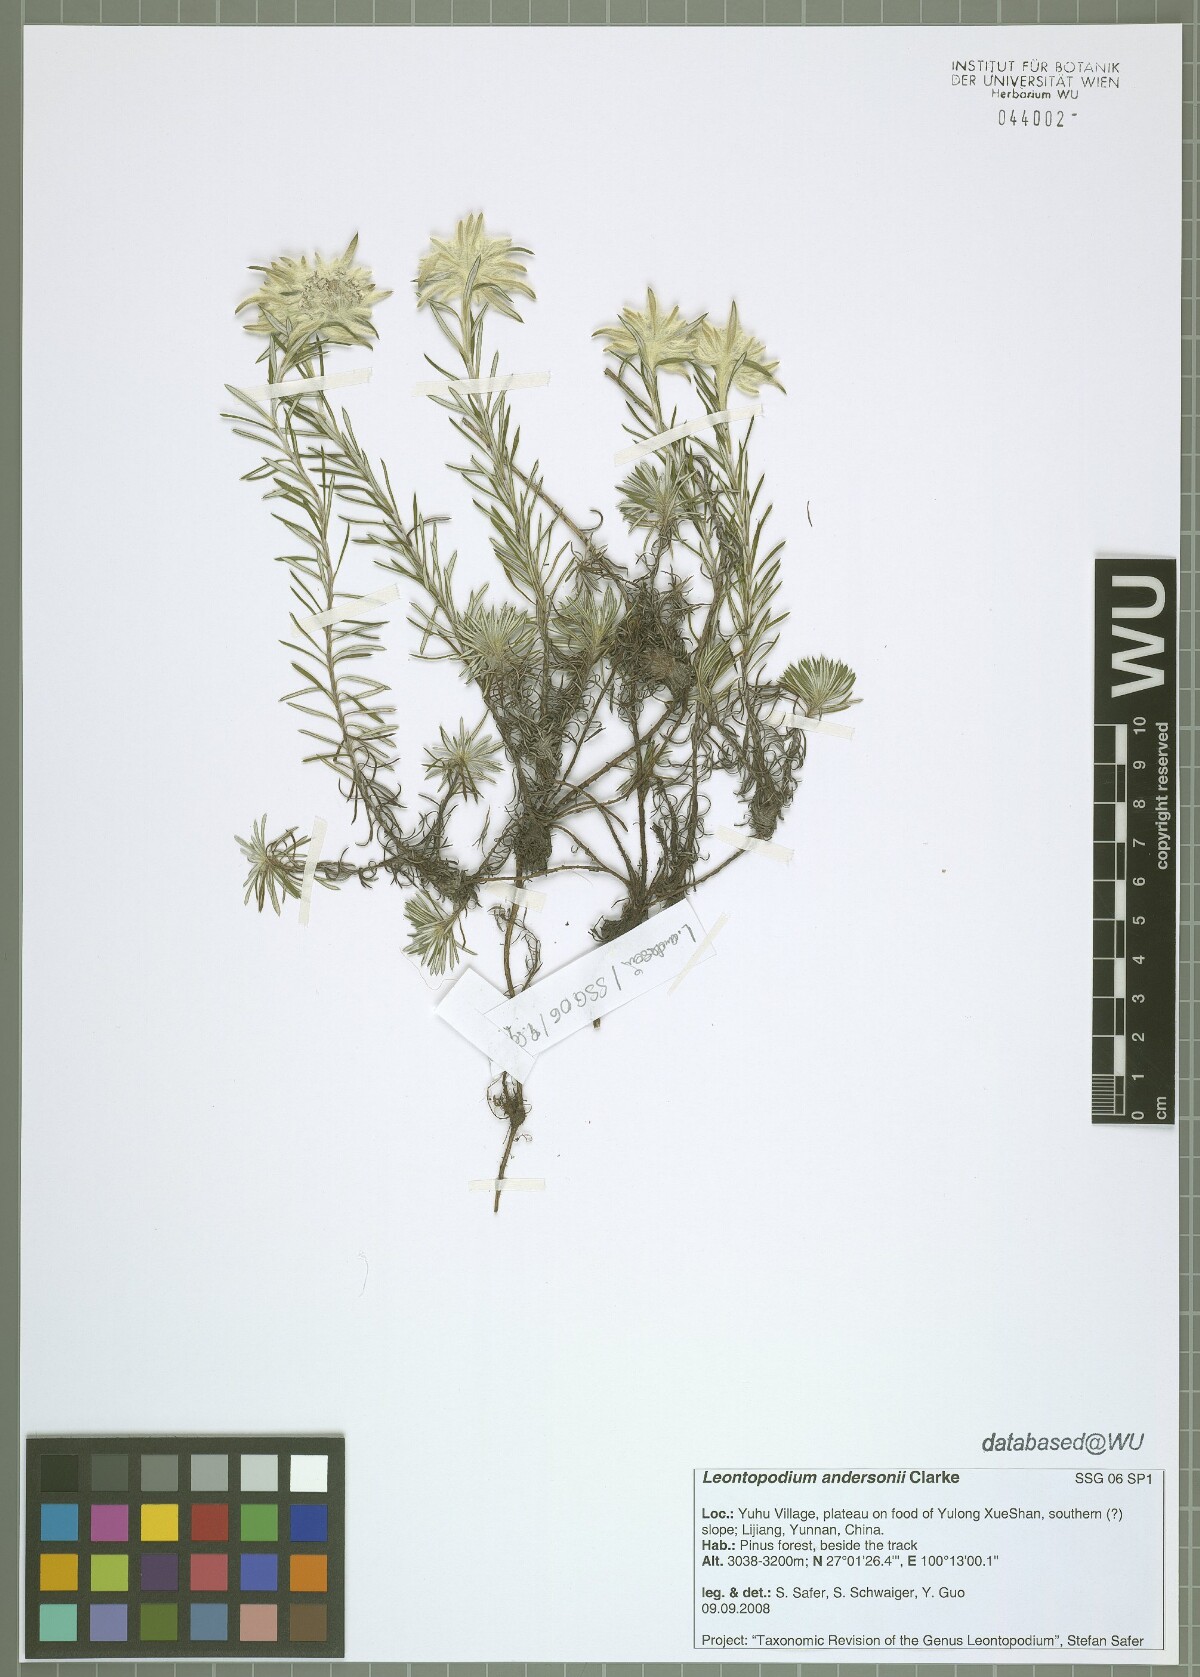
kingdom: Plantae
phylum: Tracheophyta
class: Magnoliopsida
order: Asterales
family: Asteraceae
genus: Leontopodium
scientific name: Leontopodium andersonii
